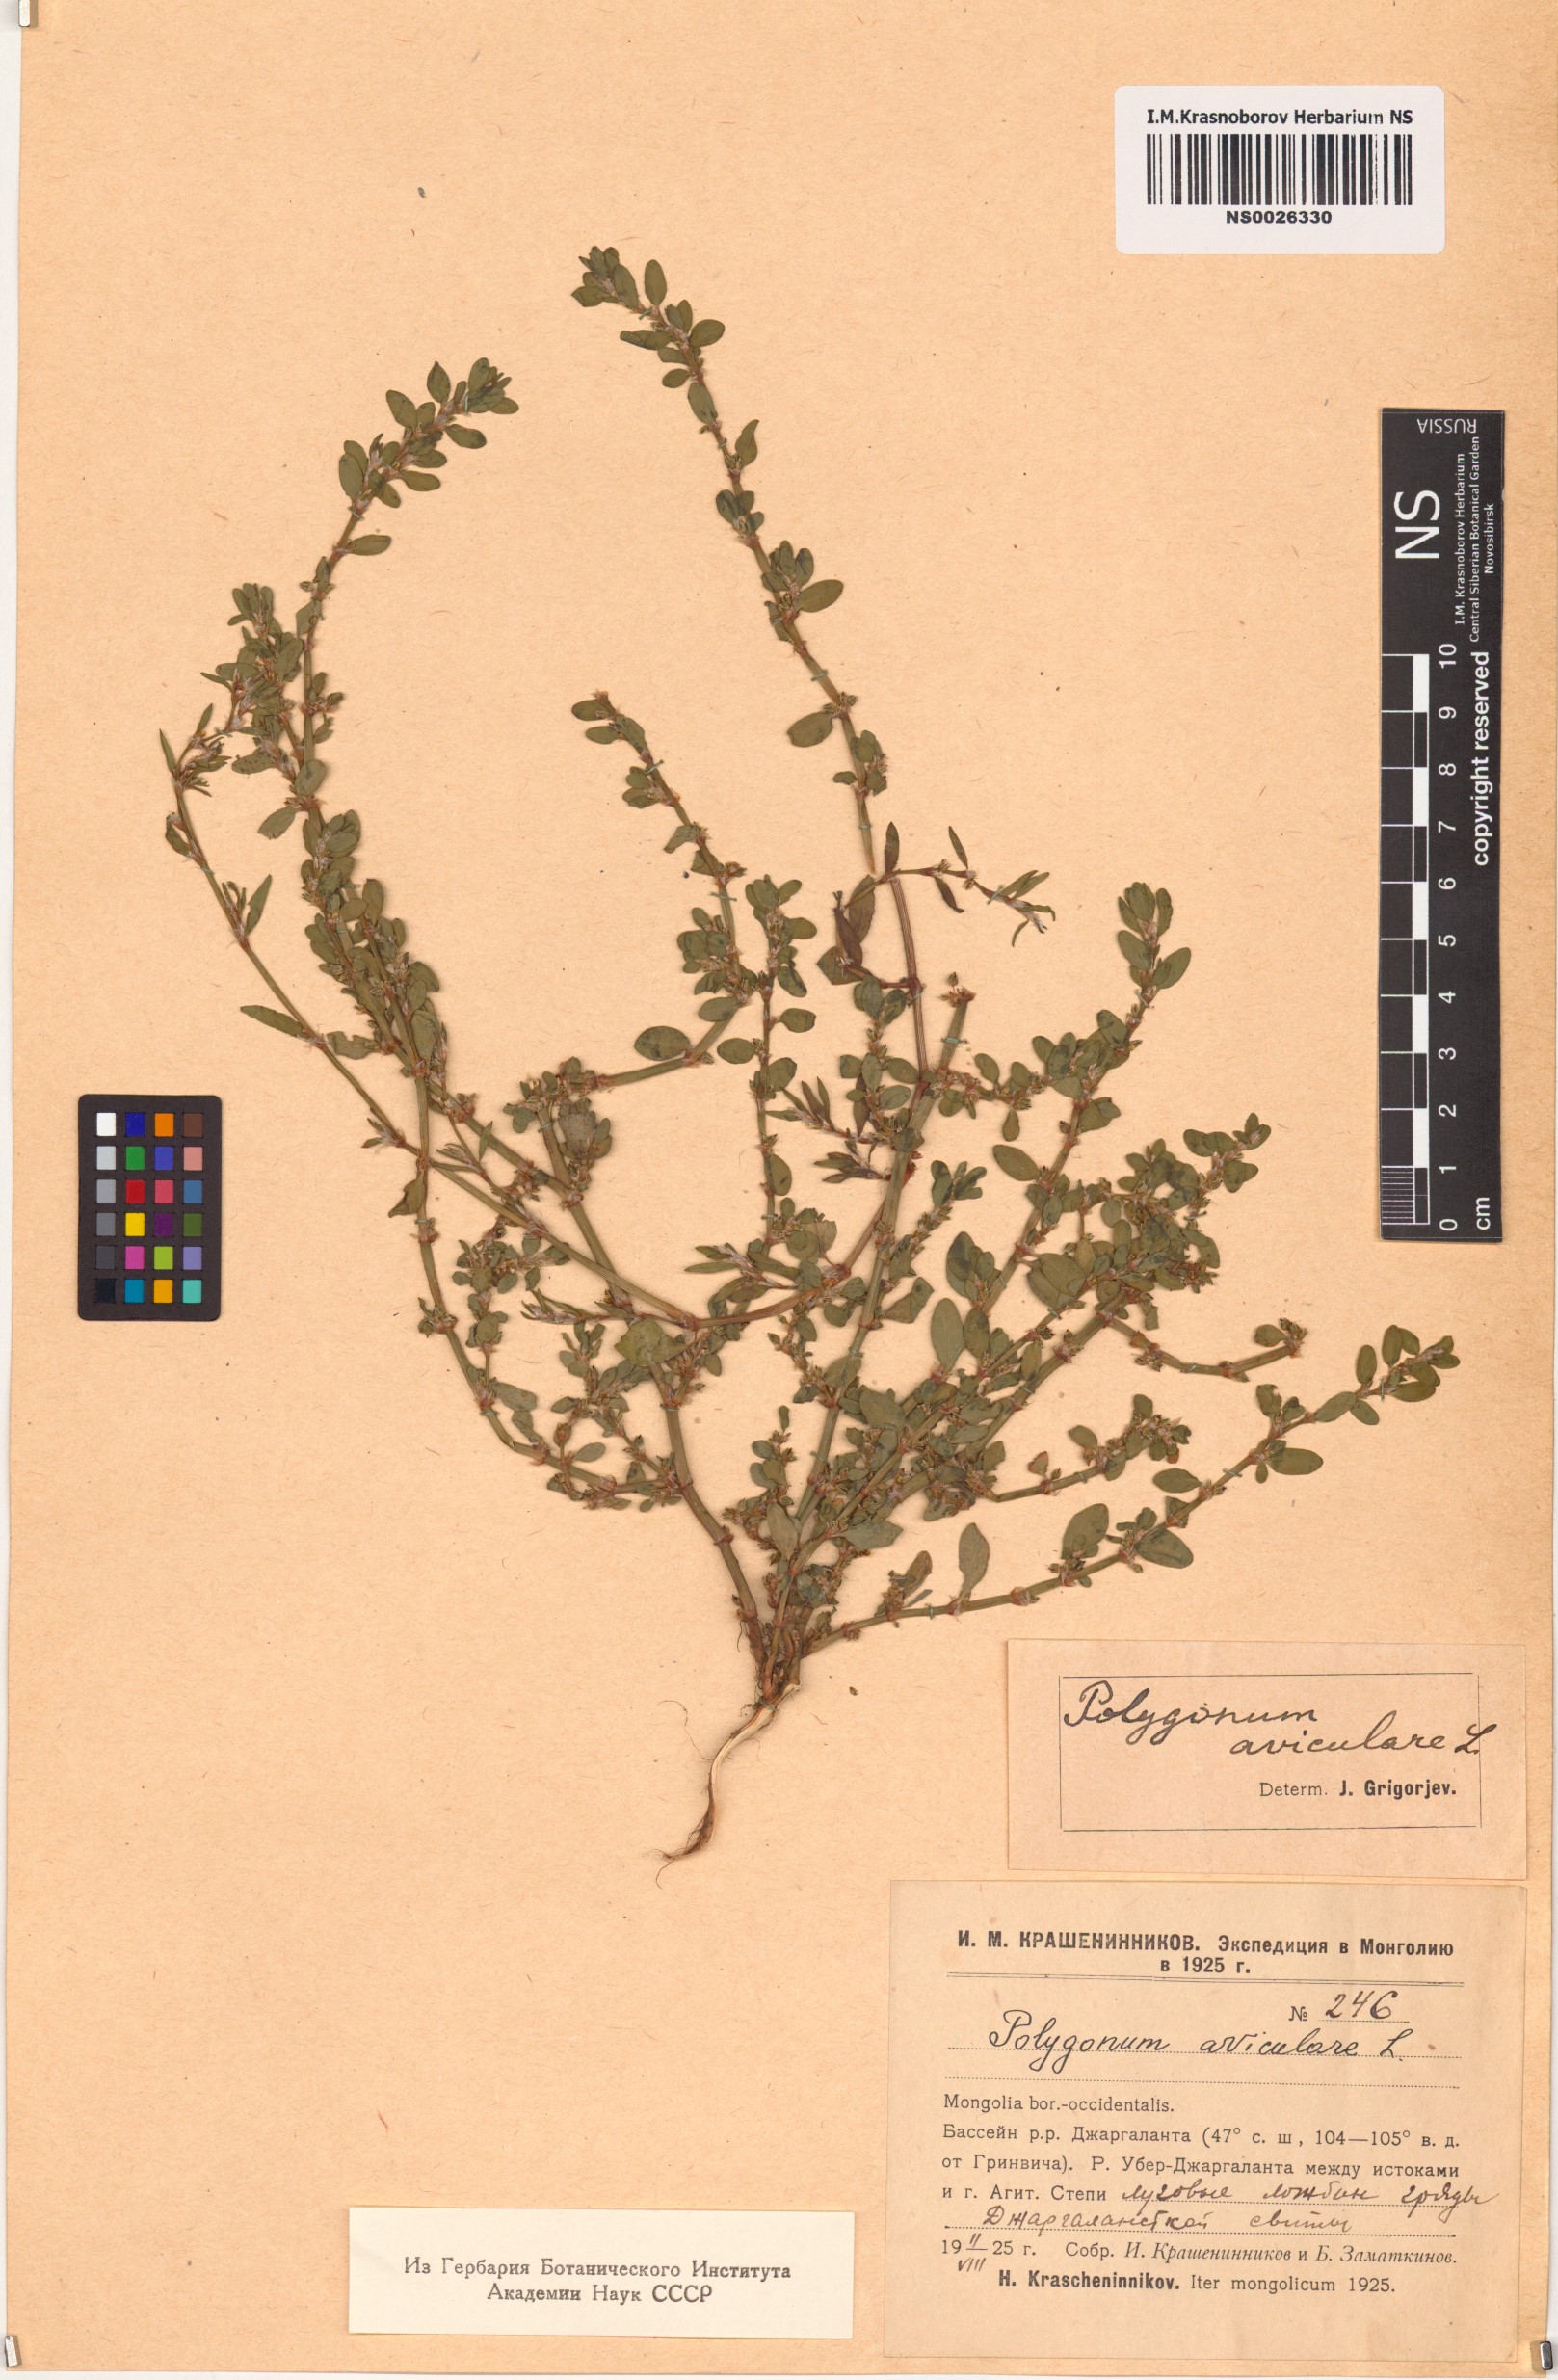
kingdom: Plantae
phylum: Tracheophyta
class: Magnoliopsida
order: Caryophyllales
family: Polygonaceae
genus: Polygonum
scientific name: Polygonum aviculare
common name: Prostrate knotweed
